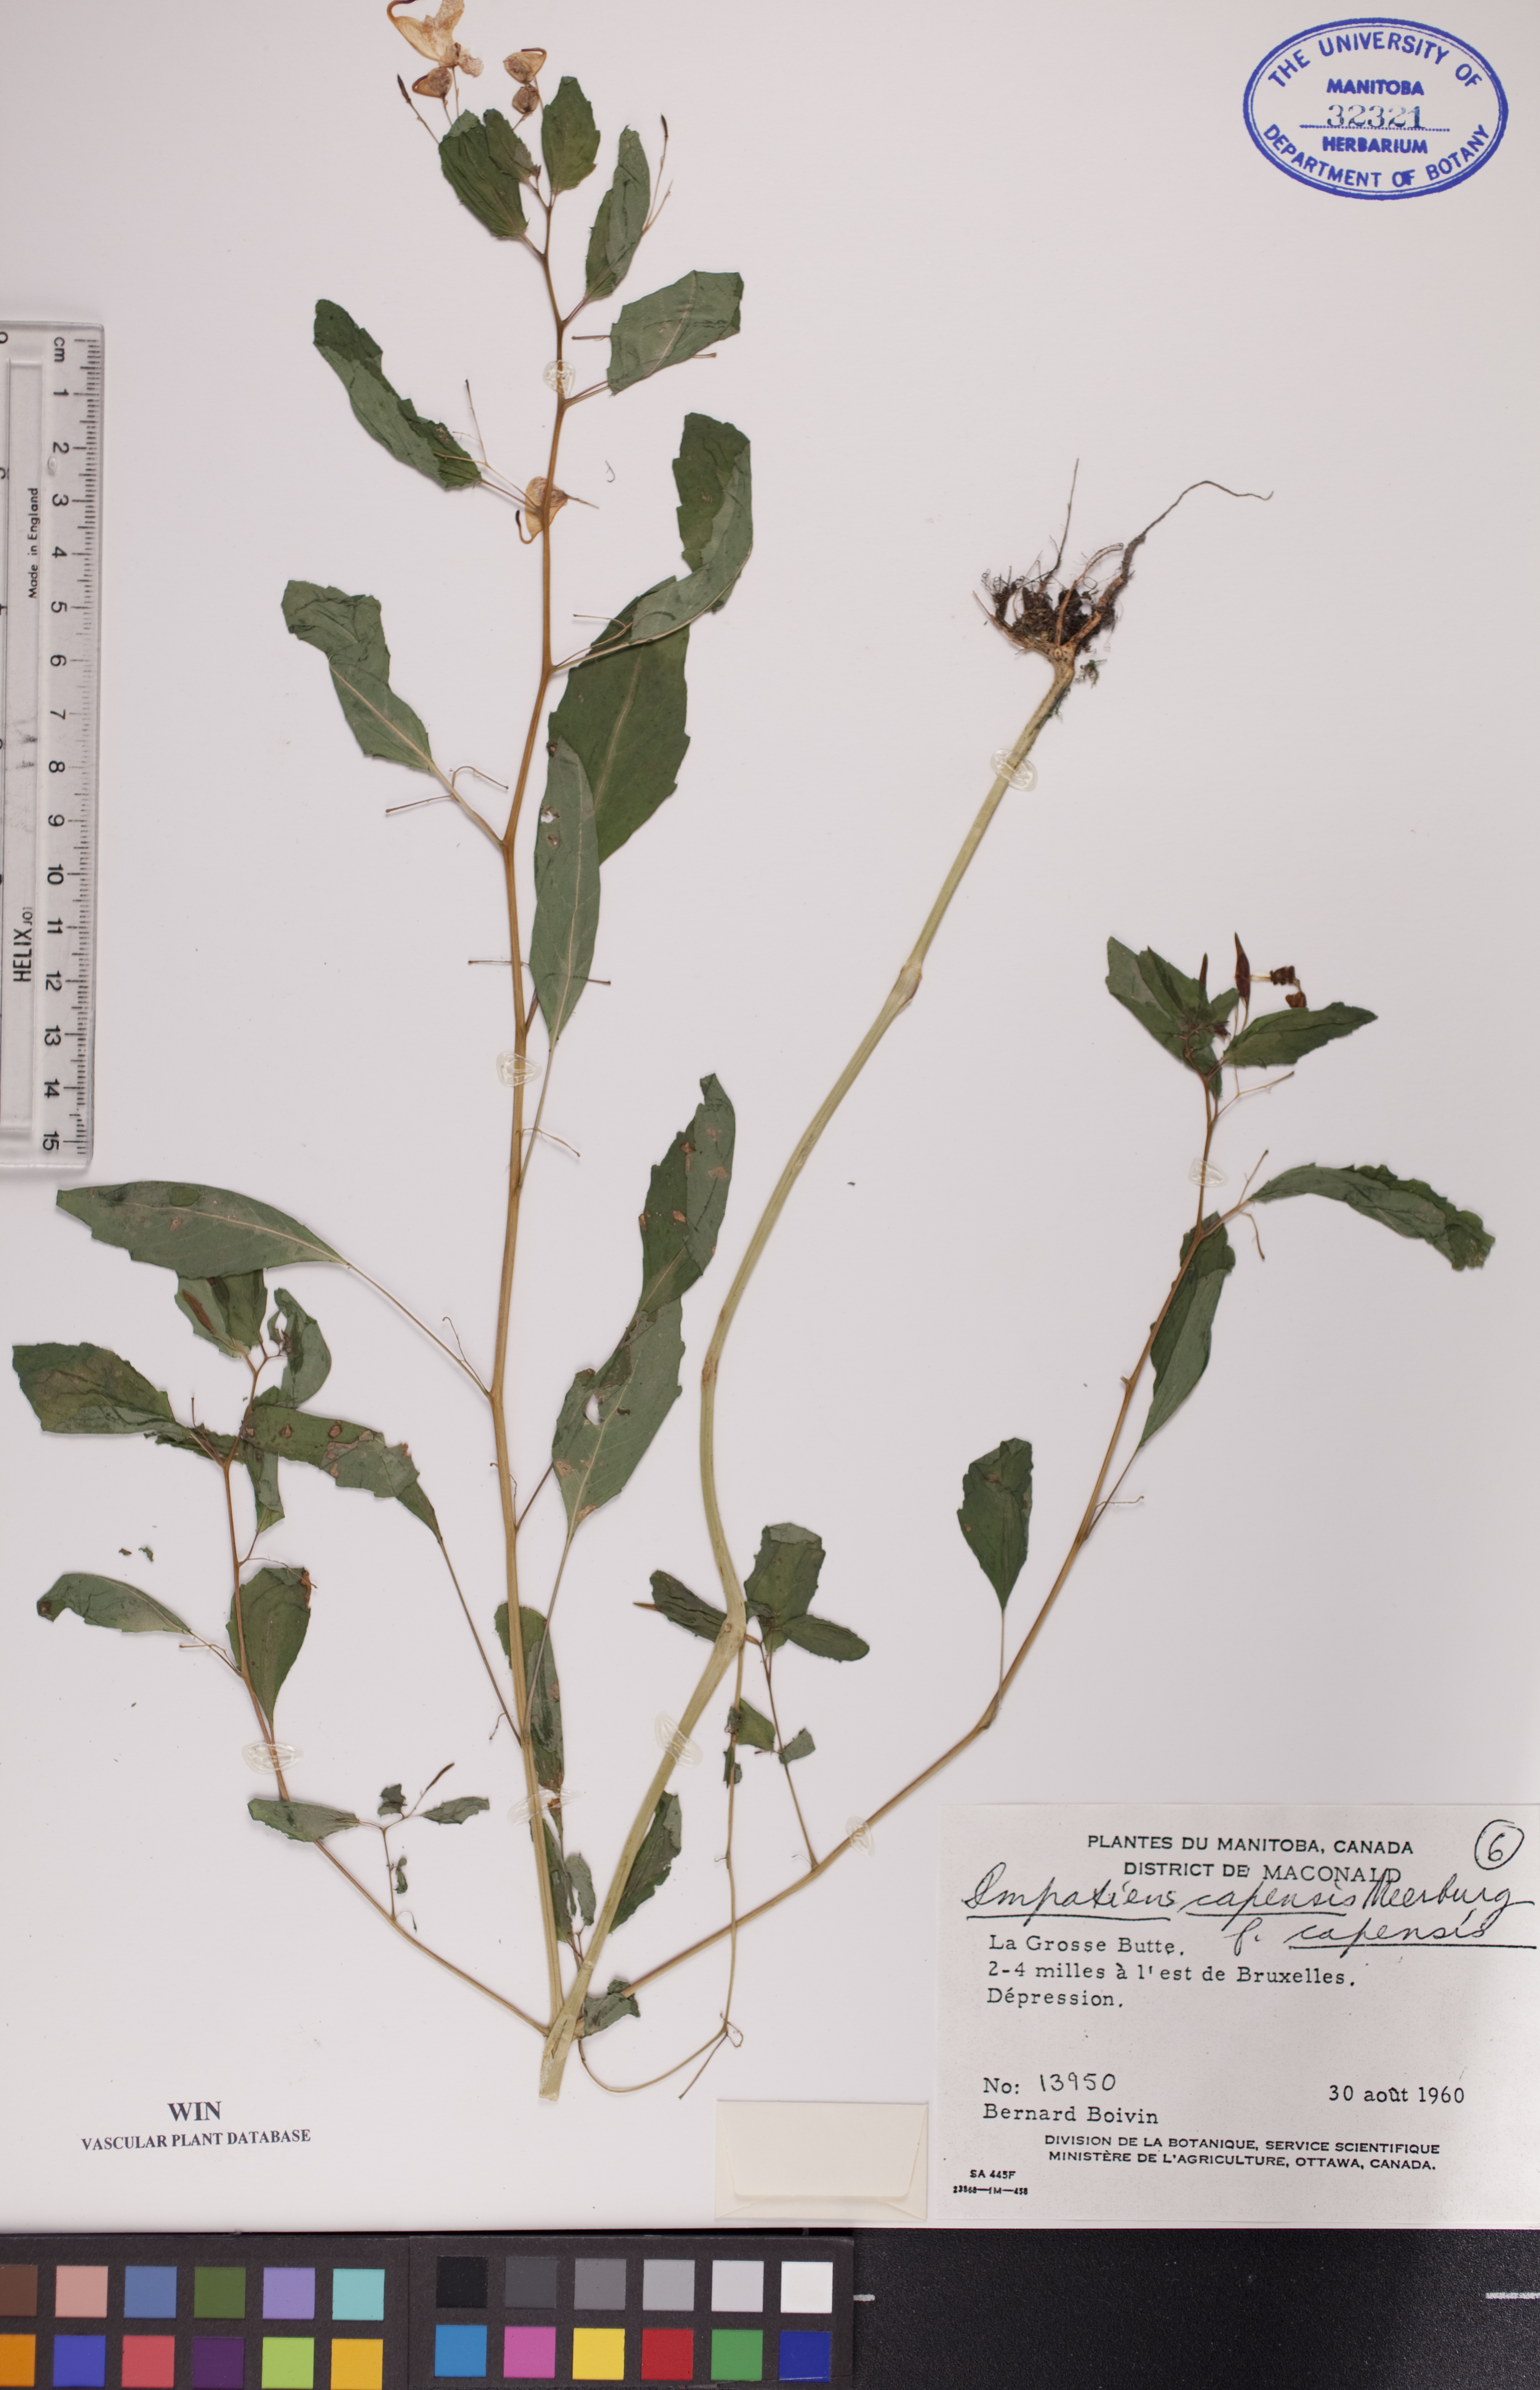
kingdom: Plantae
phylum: Tracheophyta
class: Magnoliopsida
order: Ericales
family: Balsaminaceae
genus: Impatiens
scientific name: Impatiens capensis
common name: Orange balsam
